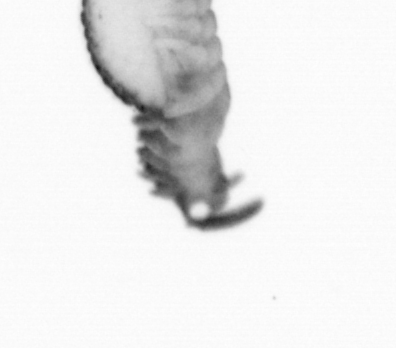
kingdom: Animalia
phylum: Annelida
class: Polychaeta
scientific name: Polychaeta
